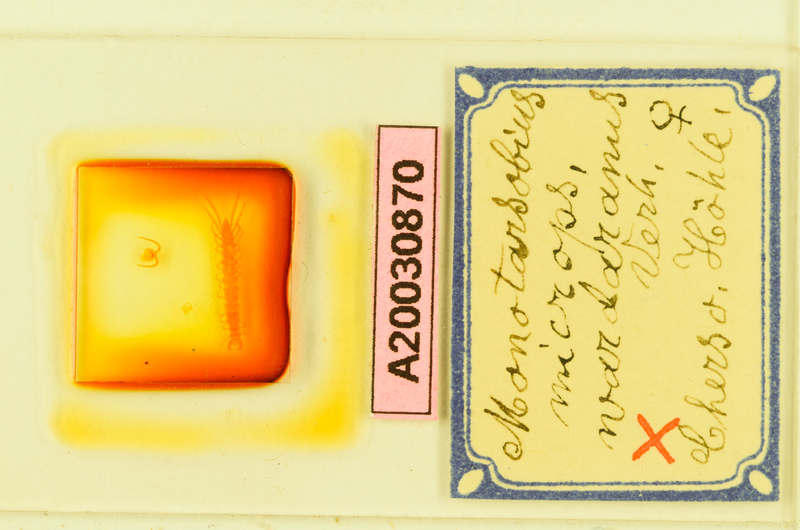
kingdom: Animalia
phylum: Arthropoda
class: Chilopoda
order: Lithobiomorpha
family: Lithobiidae
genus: Monotarsobius
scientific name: Monotarsobius microps
